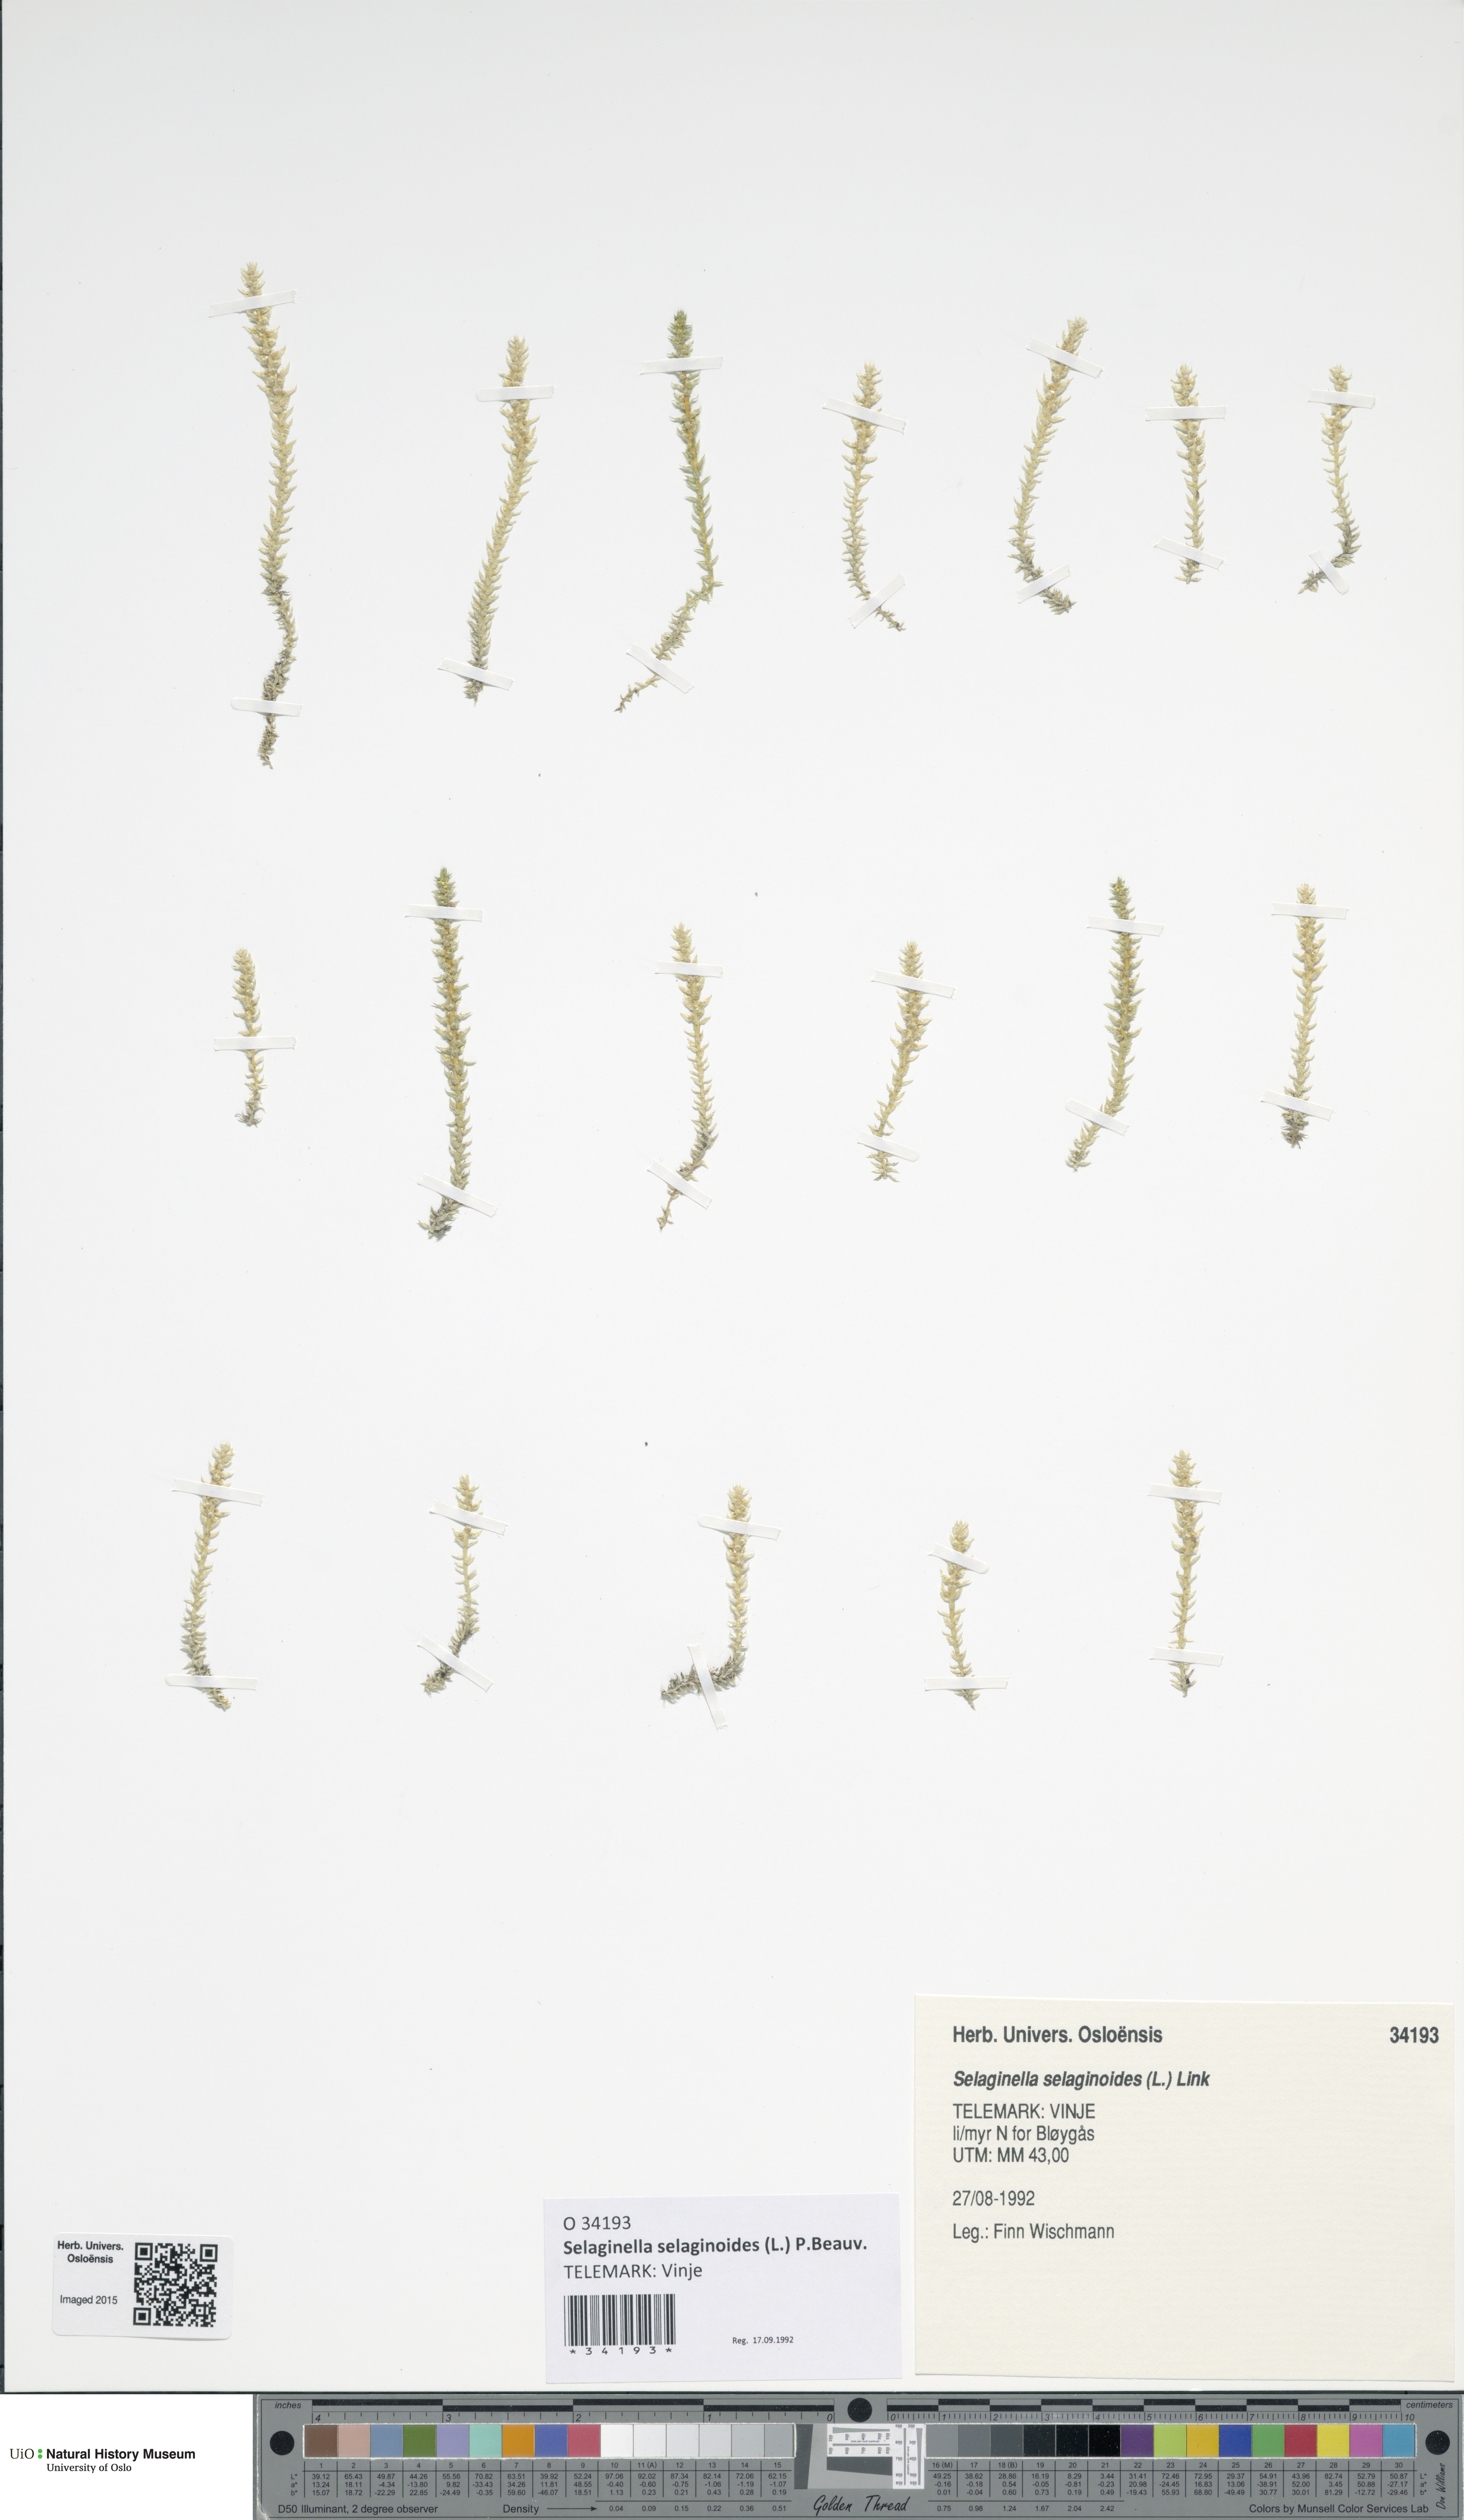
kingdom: Plantae
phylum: Tracheophyta
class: Lycopodiopsida
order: Selaginellales
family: Selaginellaceae
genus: Selaginella
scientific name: Selaginella selaginoides
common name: Prickly mountain-moss
